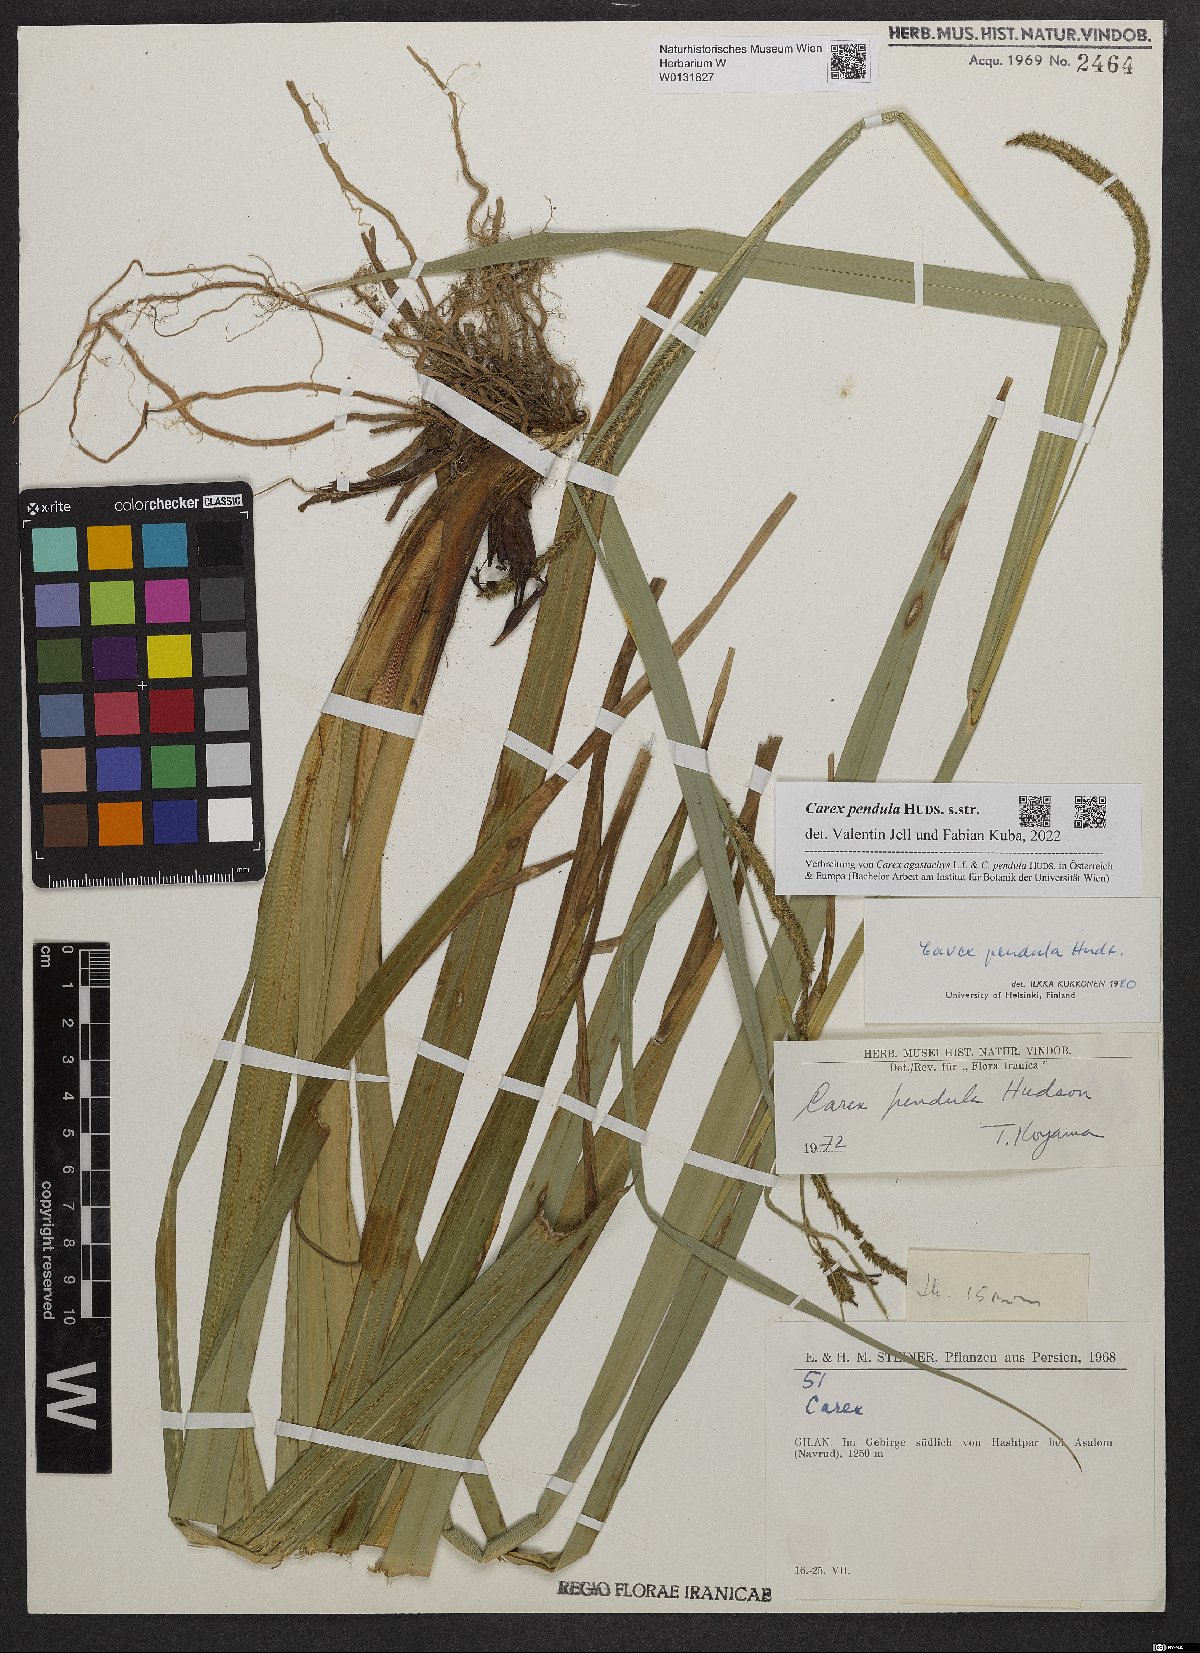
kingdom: Plantae
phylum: Tracheophyta
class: Liliopsida
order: Poales
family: Cyperaceae
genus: Carex
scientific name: Carex pendula
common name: Pendulous sedge
